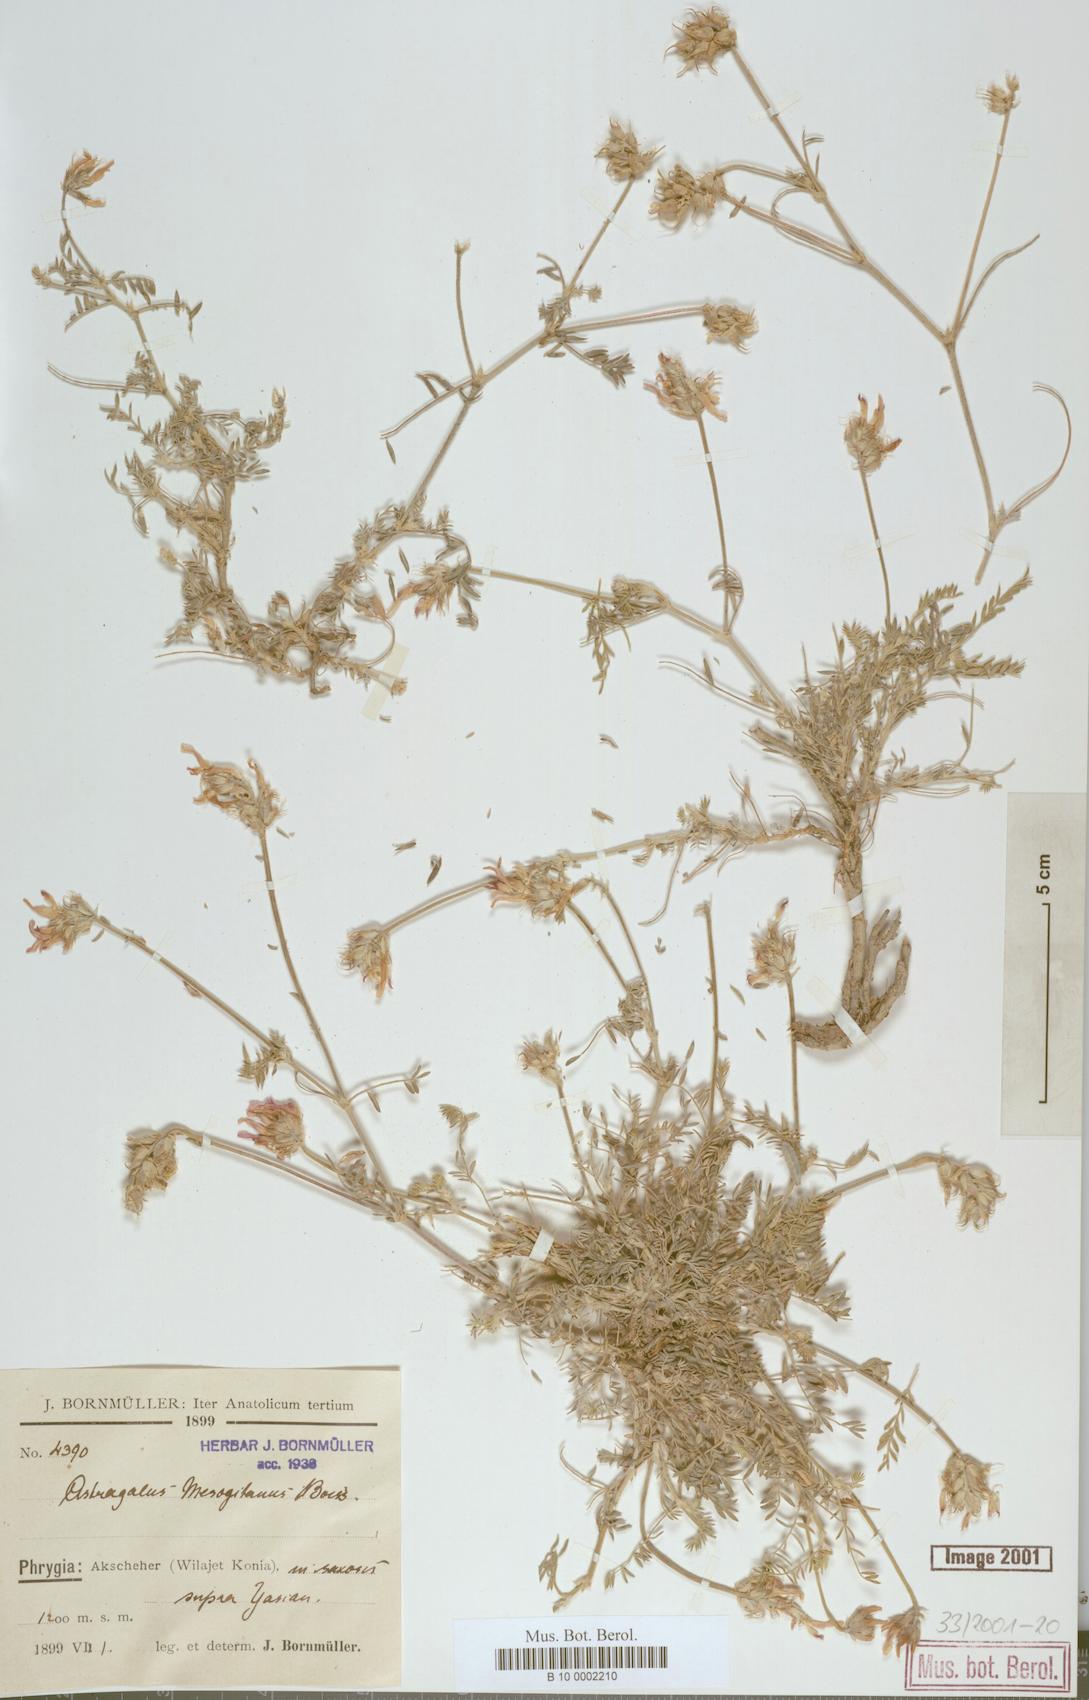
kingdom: Plantae
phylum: Tracheophyta
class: Magnoliopsida
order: Fabales
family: Fabaceae
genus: Astragalus
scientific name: Astragalus mesogitanus
